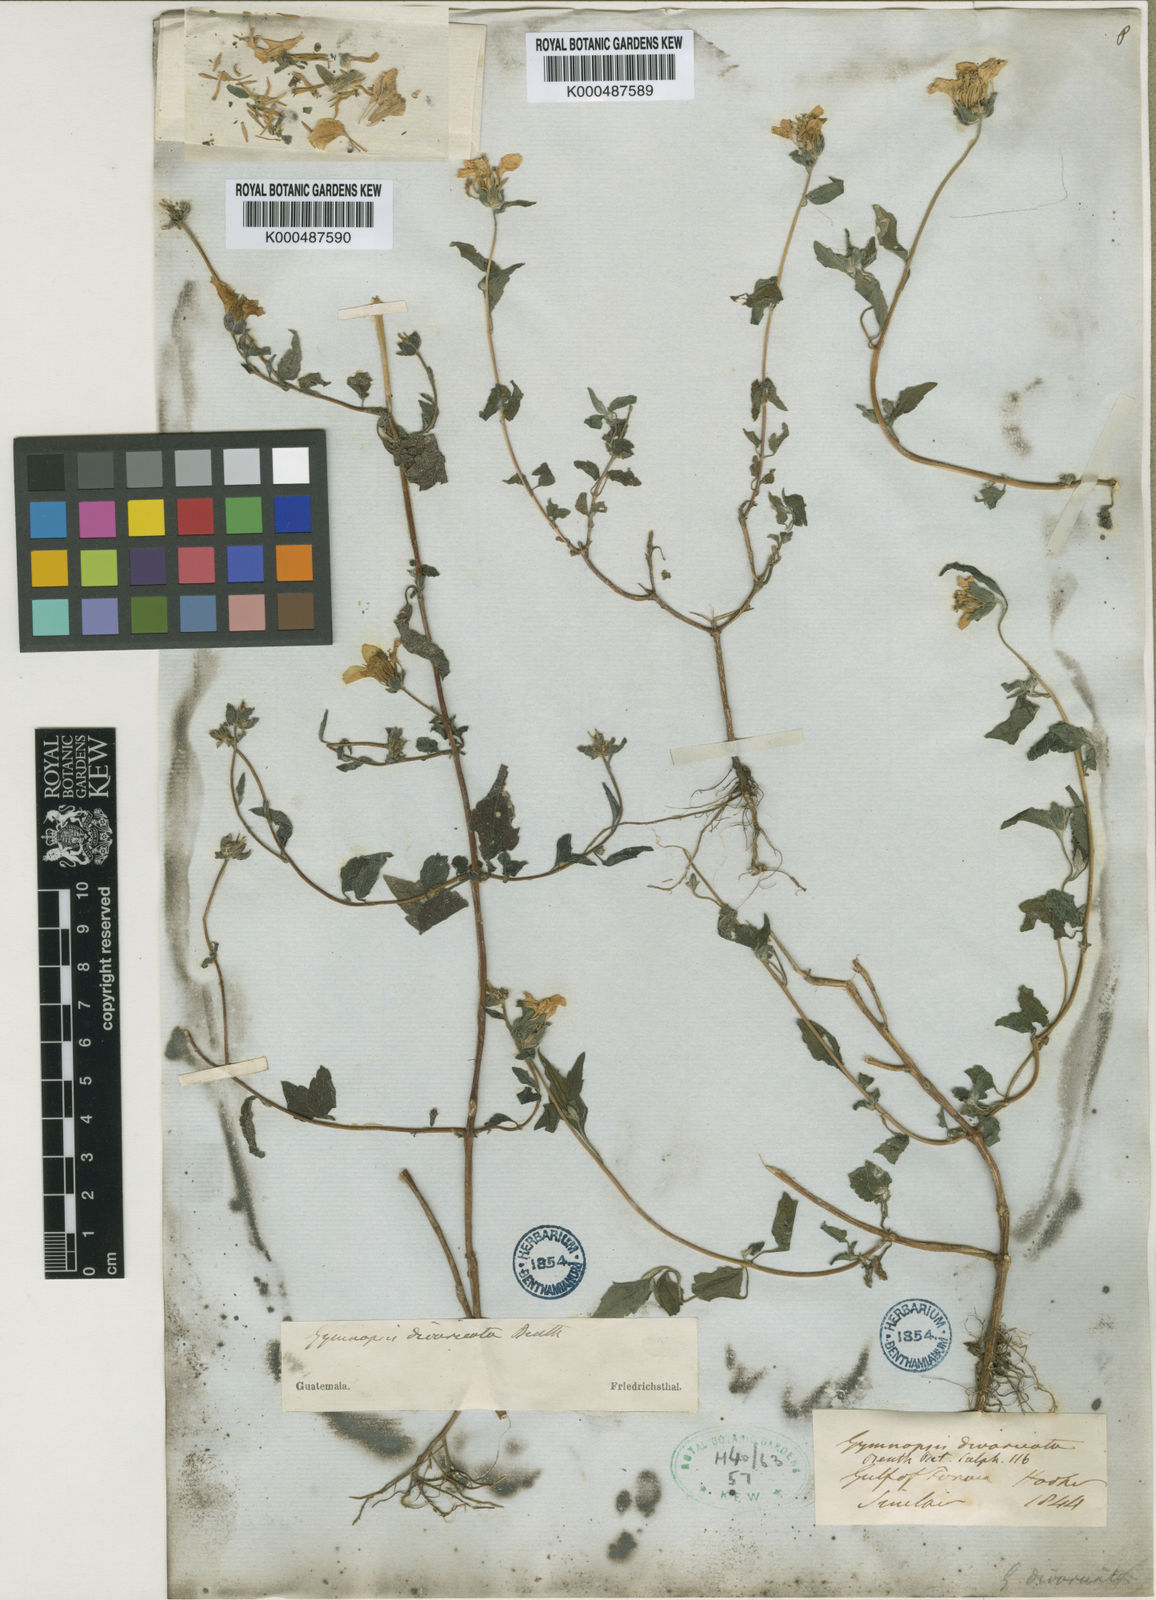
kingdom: Plantae
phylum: Tracheophyta
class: Magnoliopsida
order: Asterales
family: Asteraceae
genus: Sclerocarpus
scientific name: Sclerocarpus divaricatus
